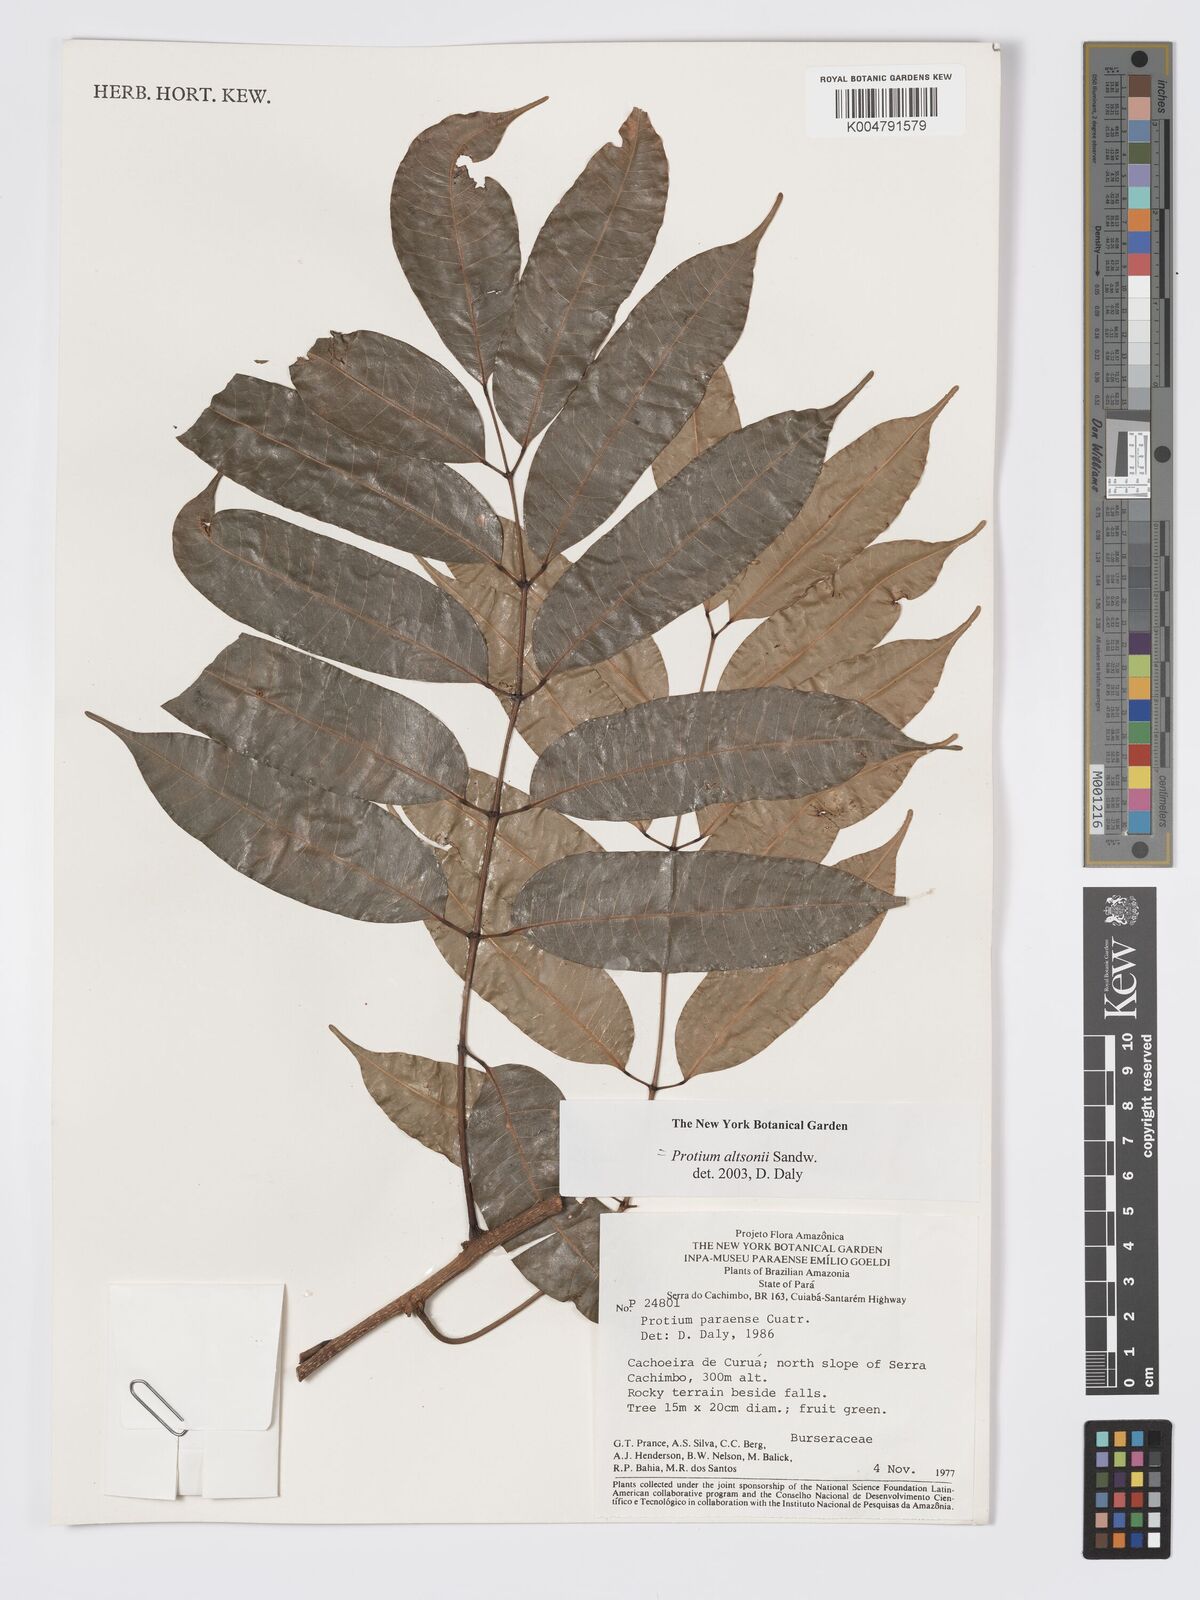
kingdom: Plantae
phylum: Tracheophyta
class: Magnoliopsida
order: Sapindales
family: Burseraceae
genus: Protium
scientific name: Protium altsonii
